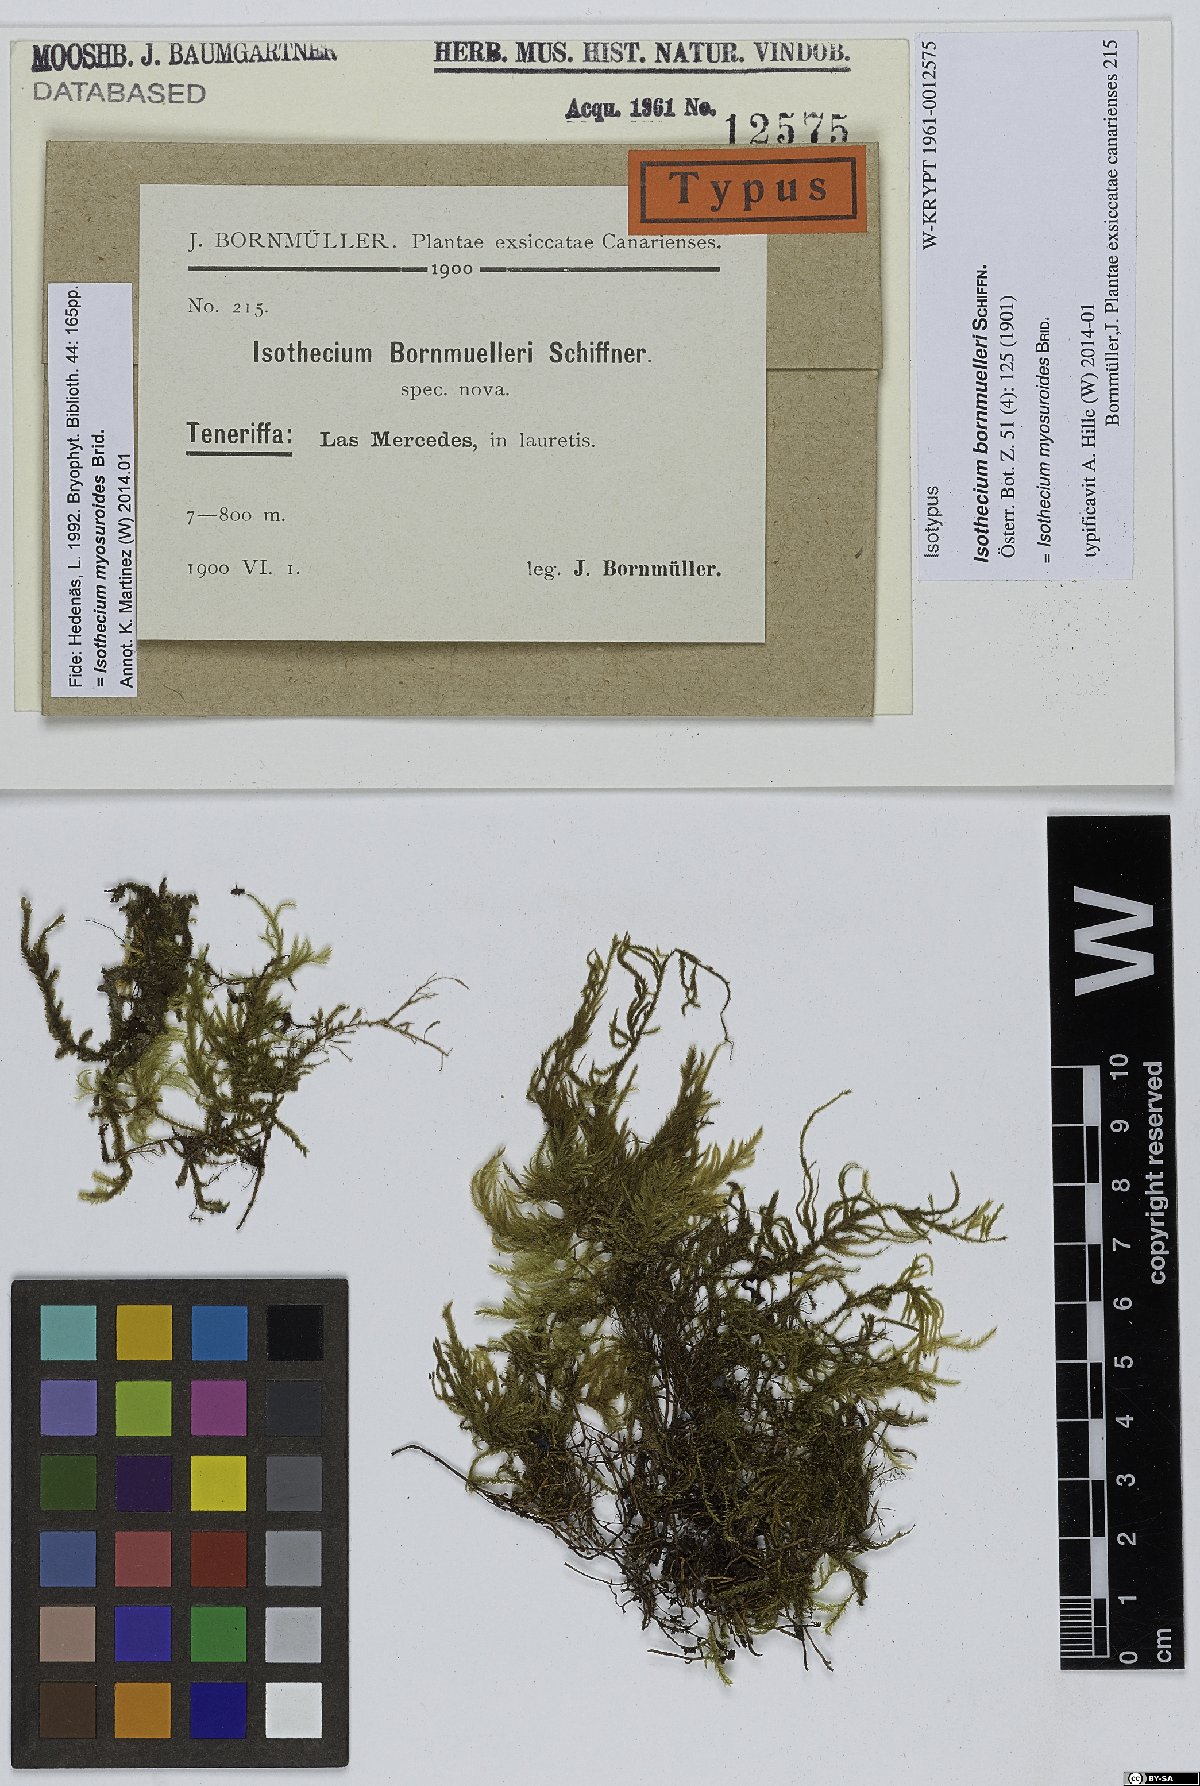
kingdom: Plantae
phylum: Bryophyta
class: Bryopsida
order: Hypnales
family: Lembophyllaceae
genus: Pseudisothecium
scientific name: Pseudisothecium myosuroides
